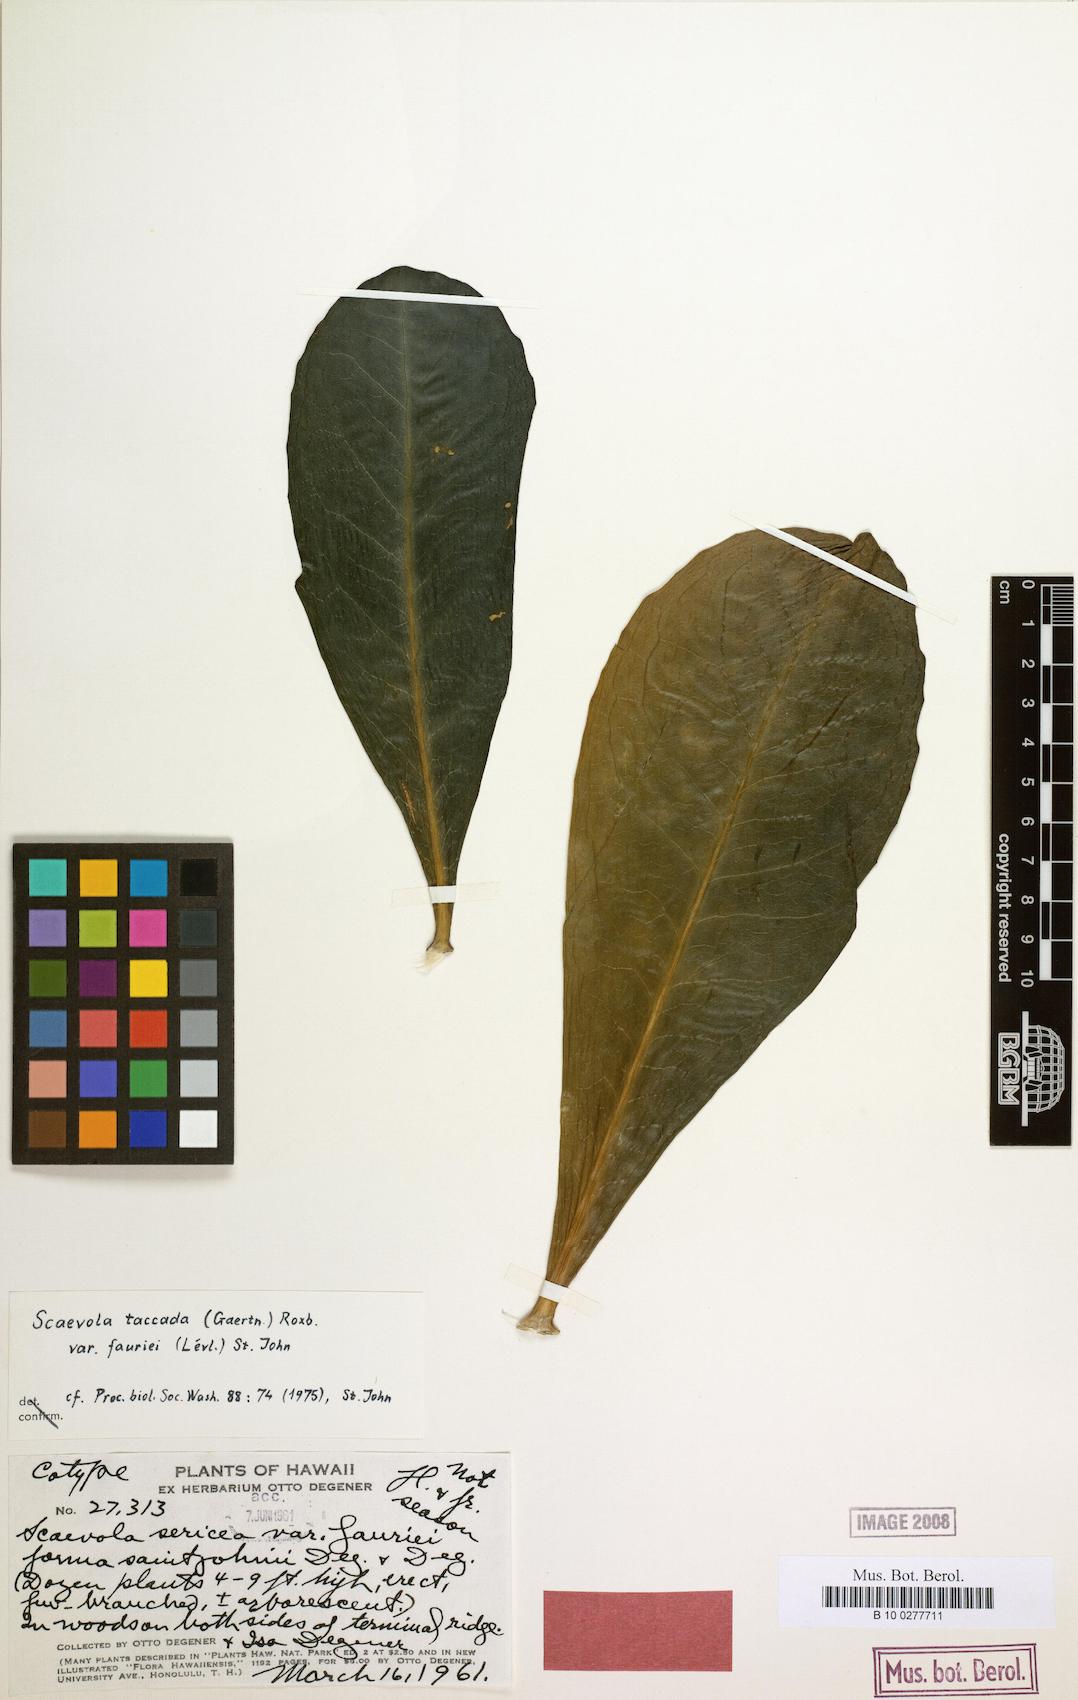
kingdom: Plantae
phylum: Tracheophyta
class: Magnoliopsida
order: Asterales
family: Goodeniaceae
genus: Scaevola
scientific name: Scaevola taccada
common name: Sea lettucetree
